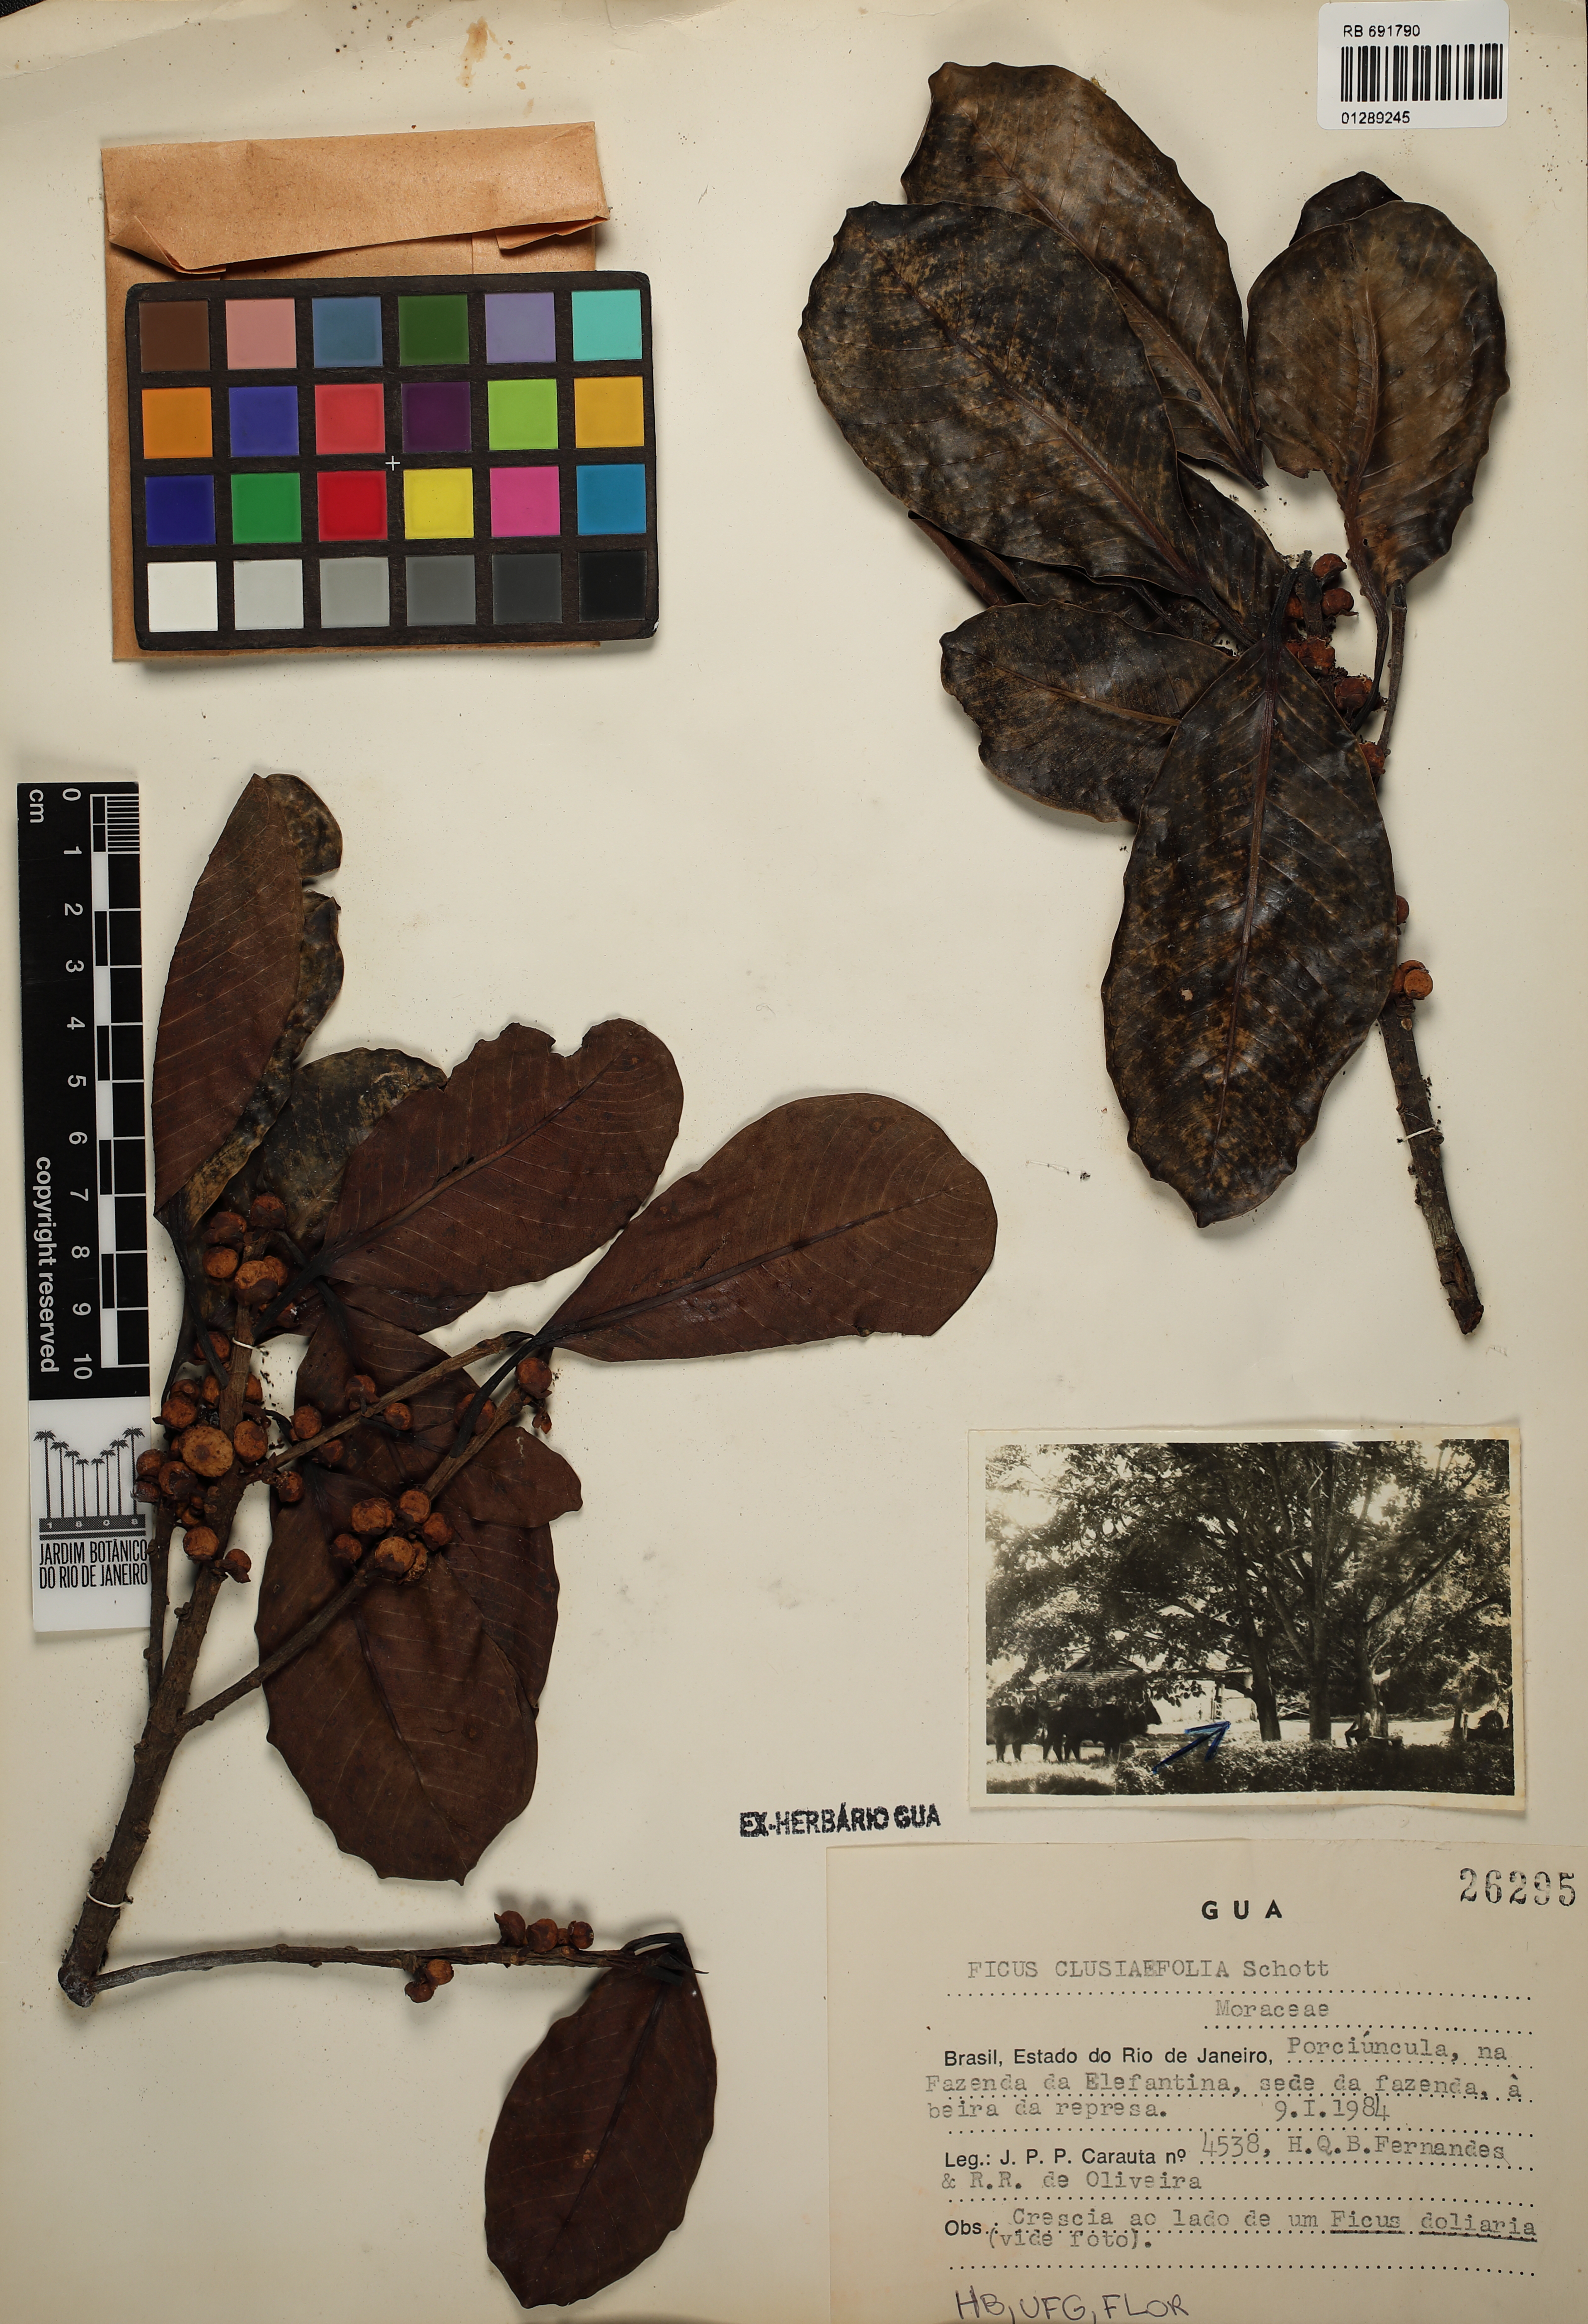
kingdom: Plantae
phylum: Tracheophyta
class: Magnoliopsida
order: Rosales
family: Moraceae
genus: Ficus
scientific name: Ficus americana
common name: Jamaican cherry fig
